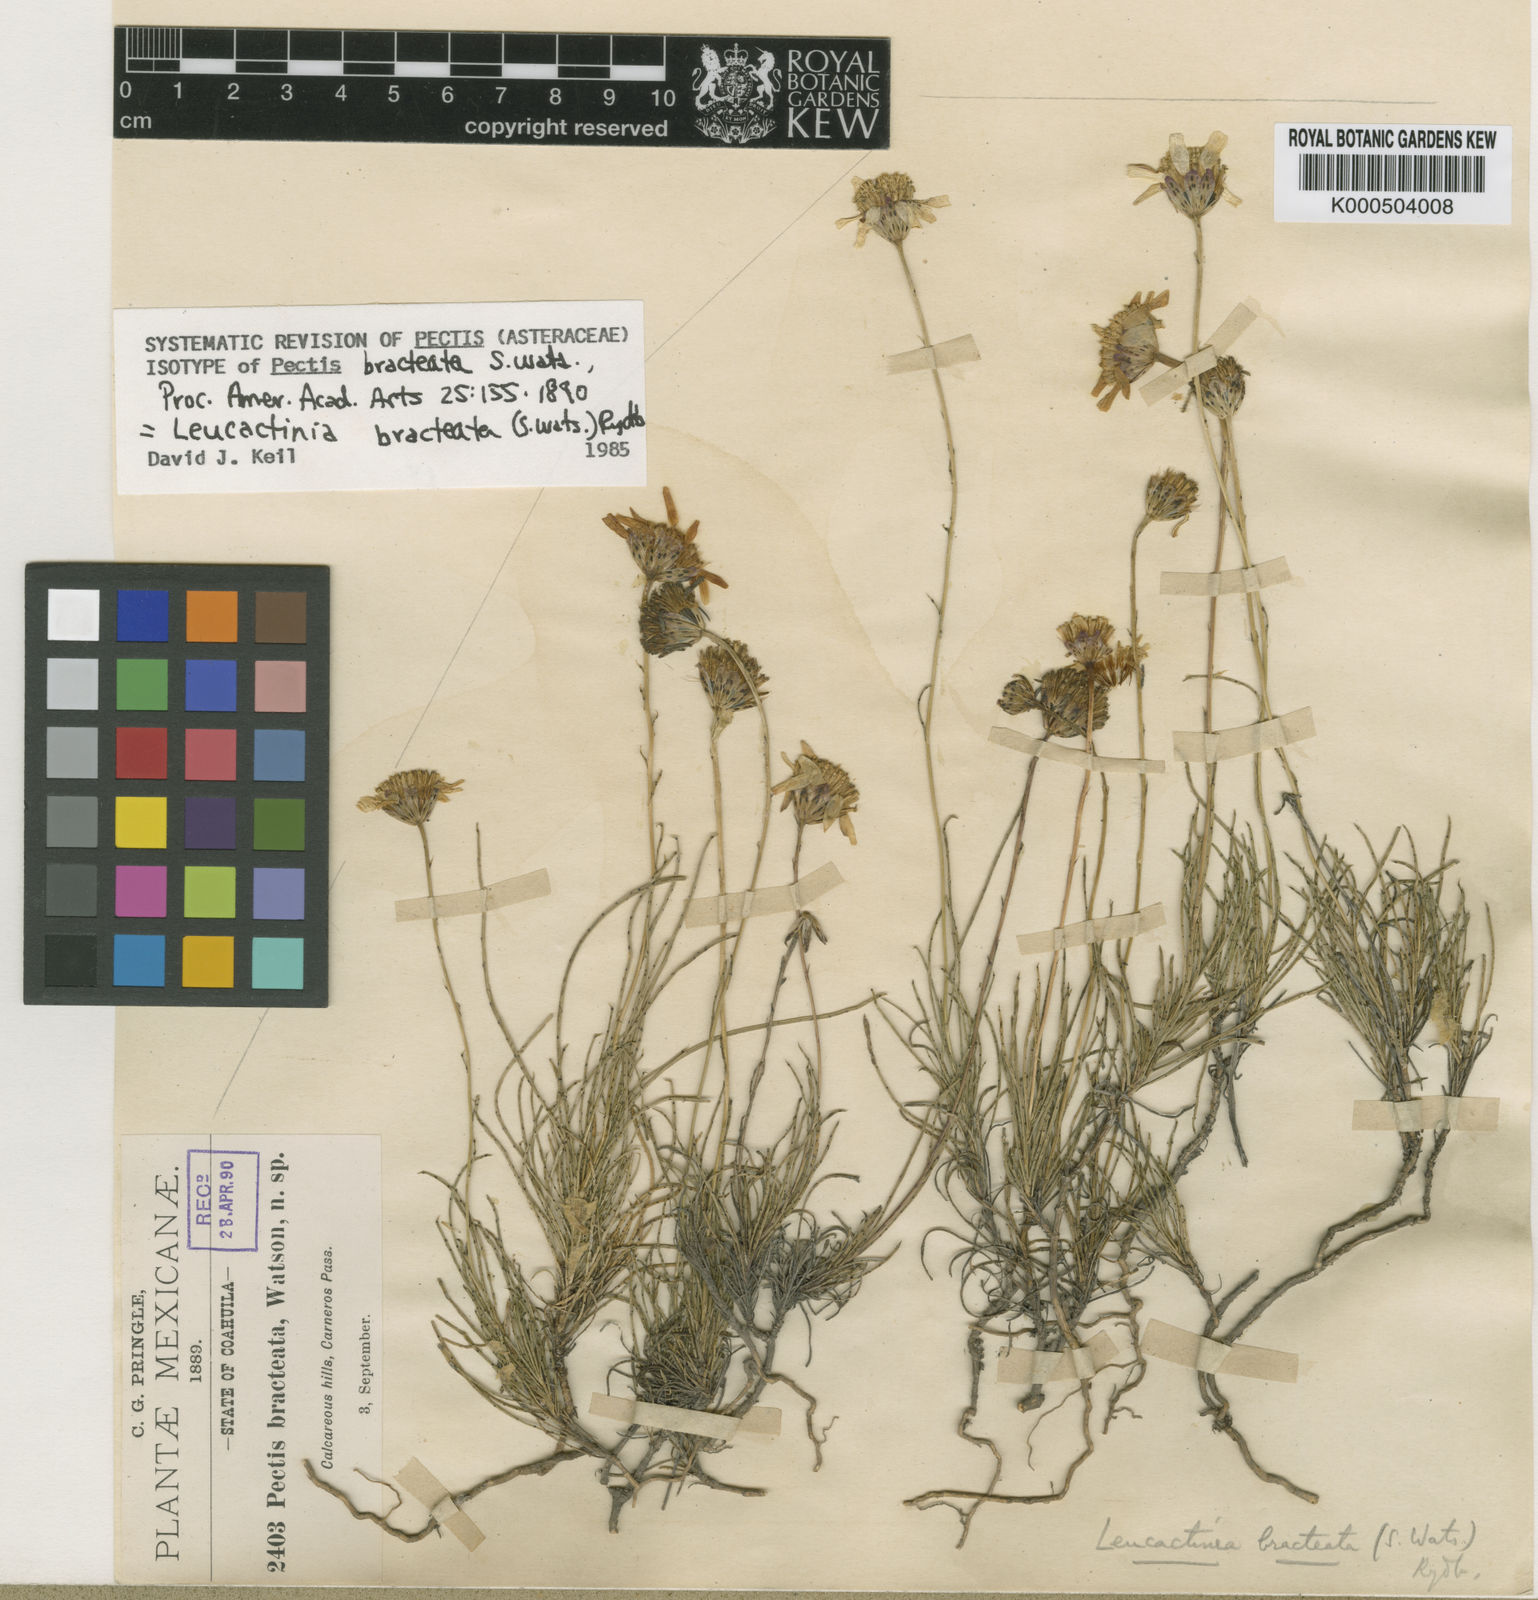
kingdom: Plantae
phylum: Tracheophyta
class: Magnoliopsida
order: Asterales
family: Asteraceae
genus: Leucactinia
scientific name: Leucactinia bracteata
